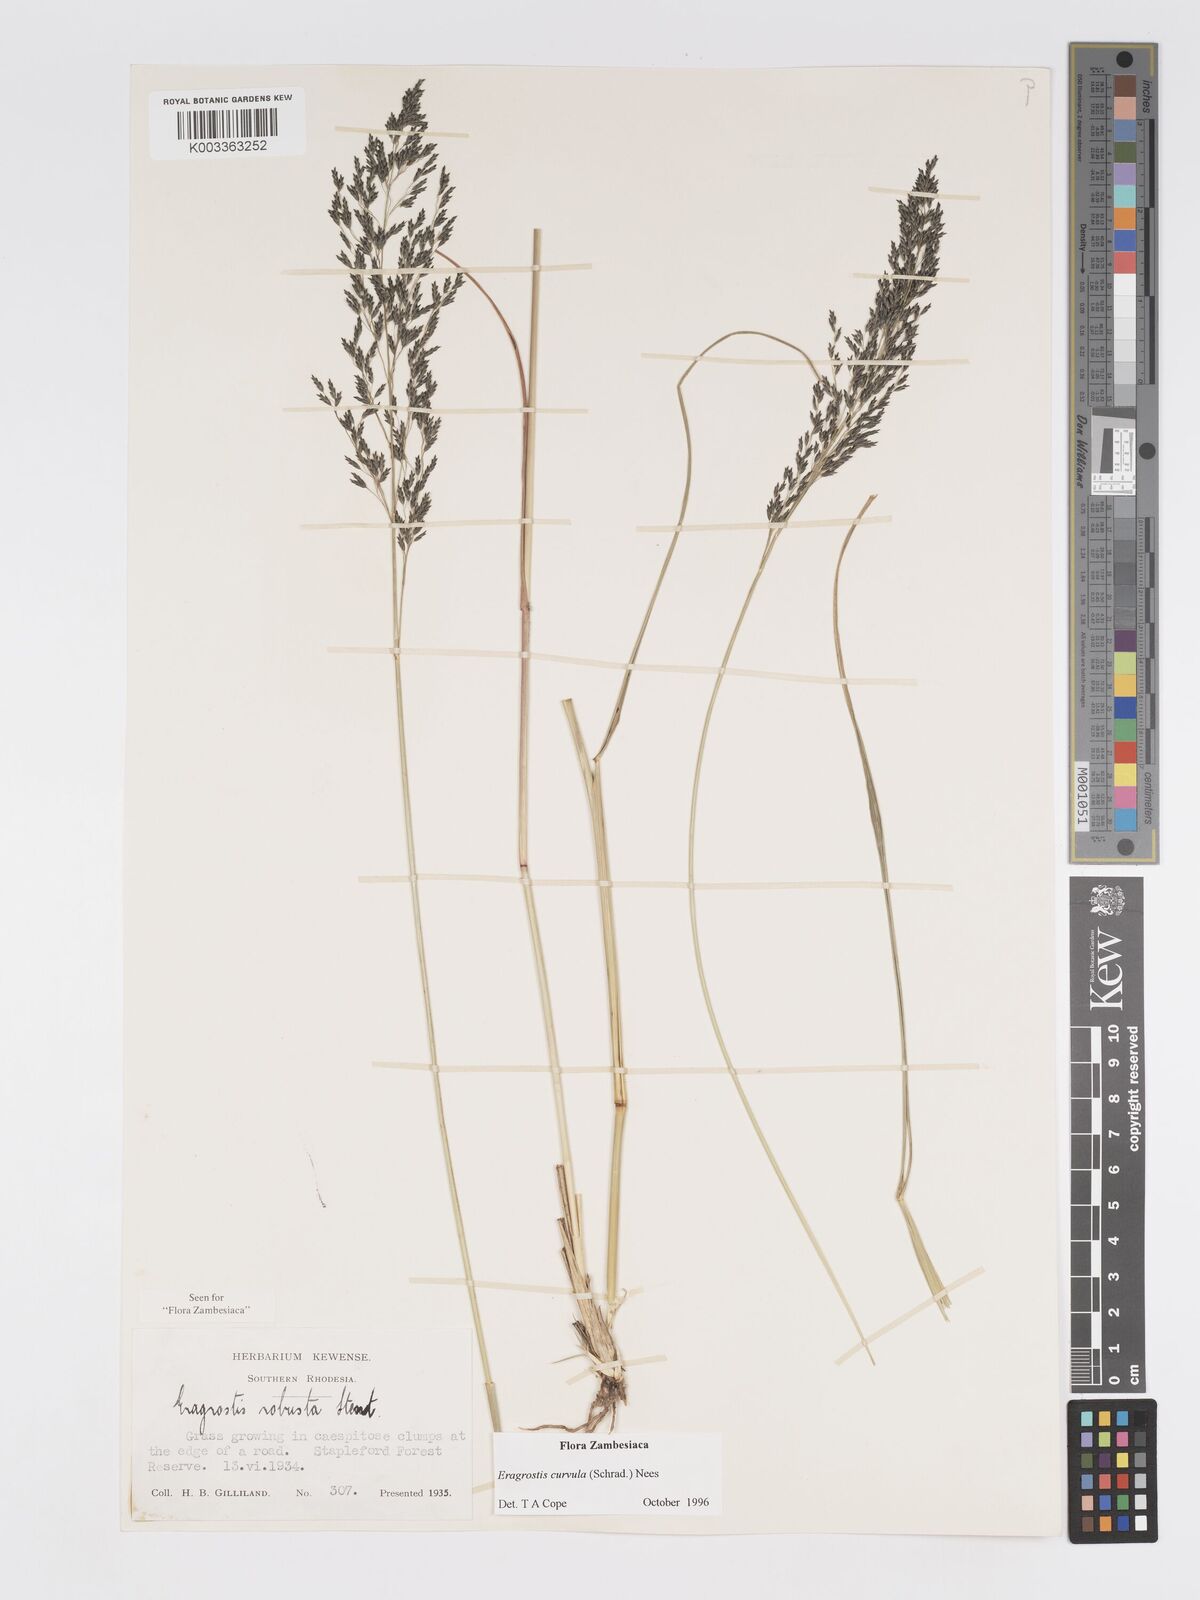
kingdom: Plantae
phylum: Tracheophyta
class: Liliopsida
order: Poales
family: Poaceae
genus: Eragrostis
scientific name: Eragrostis curvula
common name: African love-grass
